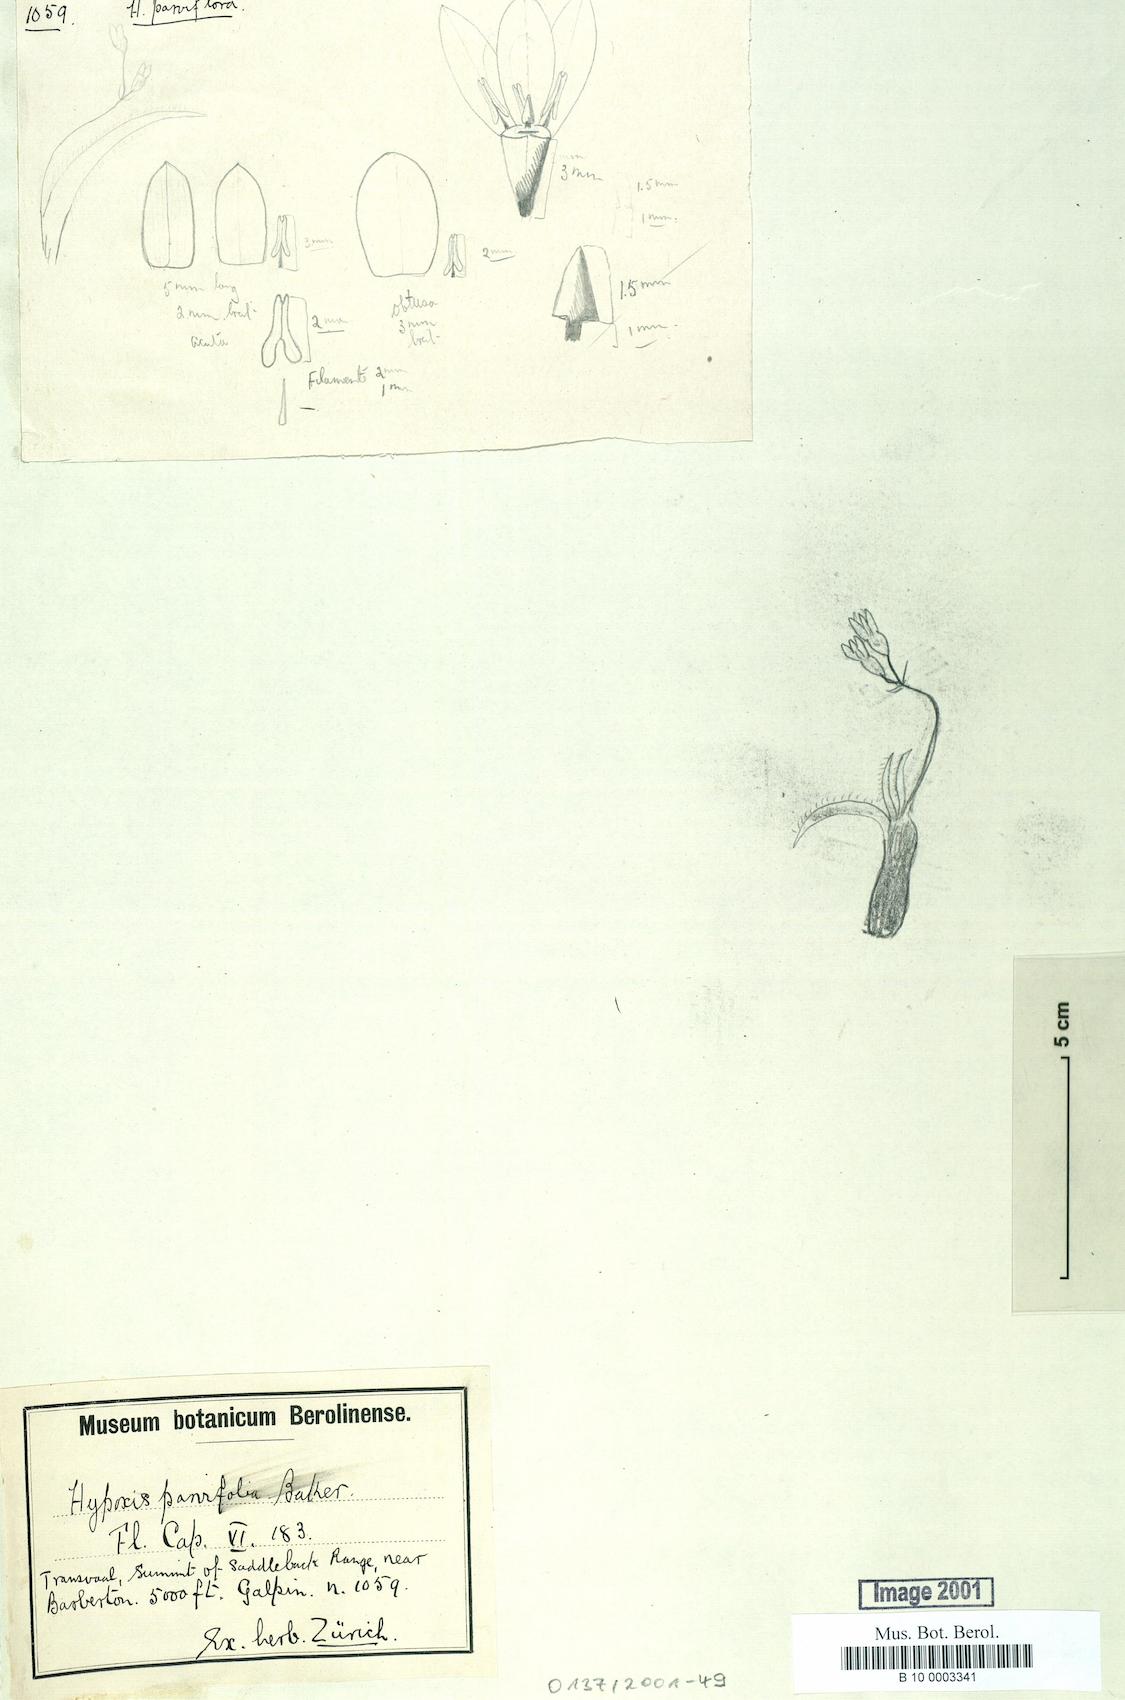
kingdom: Plantae
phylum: Tracheophyta
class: Liliopsida
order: Asparagales
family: Hypoxidaceae
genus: Hypoxis
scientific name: Hypoxis parvifolia
